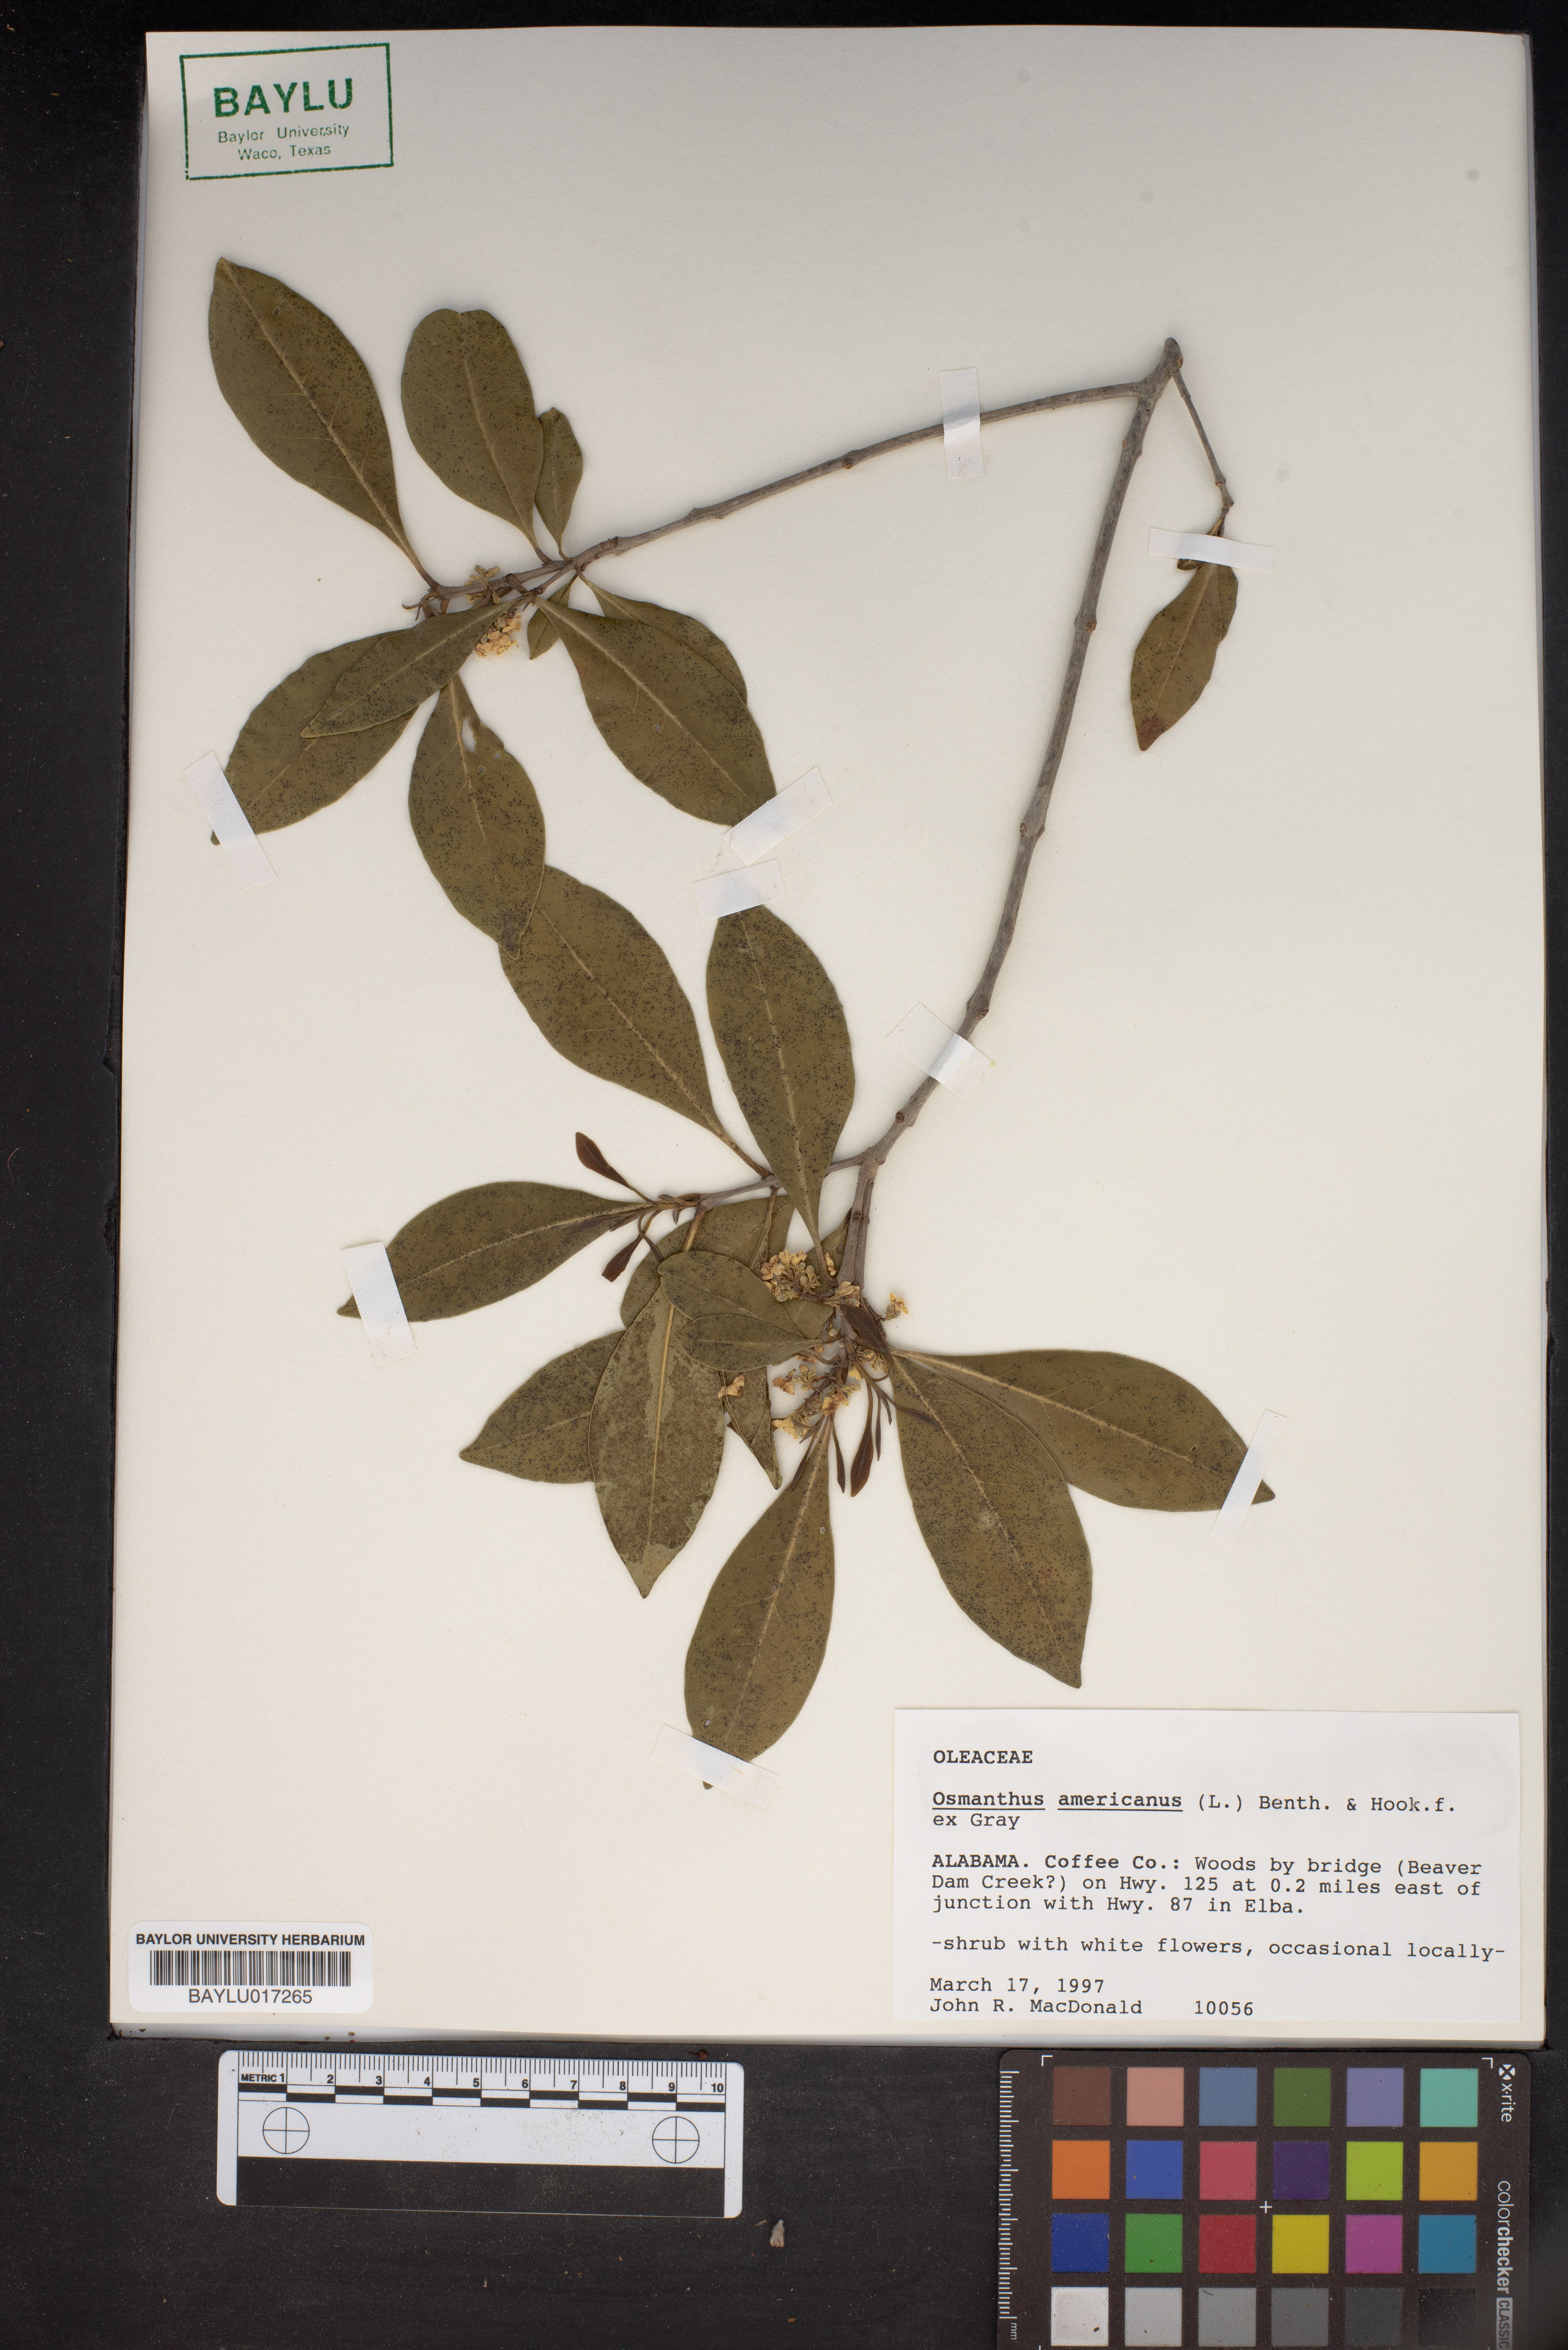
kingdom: Plantae
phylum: Tracheophyta
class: Magnoliopsida
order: Lamiales
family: Oleaceae
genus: Osmanthus
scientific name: Osmanthus americanus
